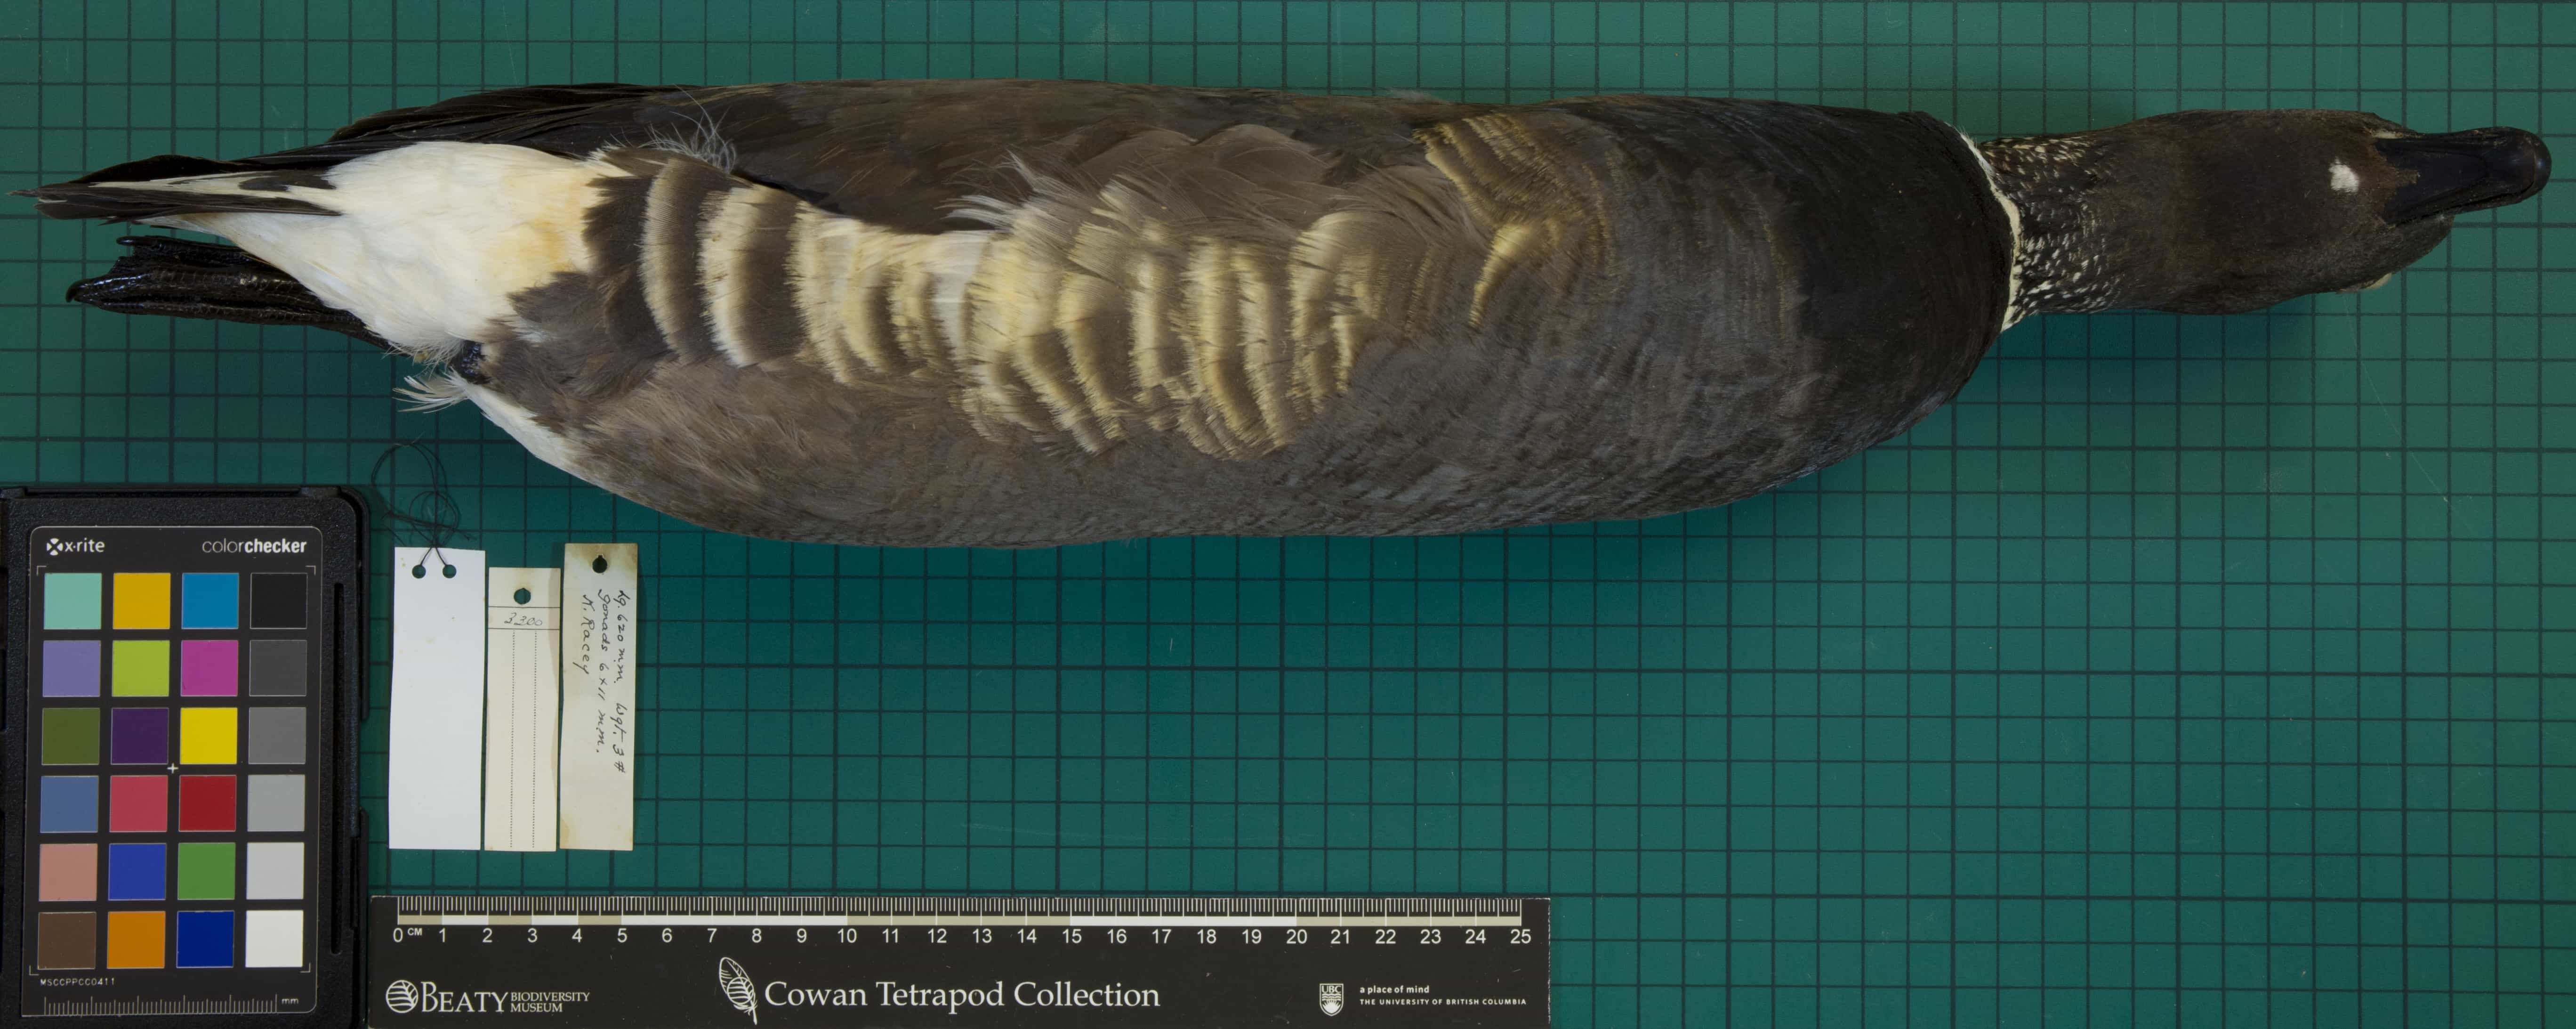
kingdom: Animalia
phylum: Chordata
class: Aves
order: Anseriformes
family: Anatidae
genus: Branta
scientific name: Branta bernicla
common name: Brant
